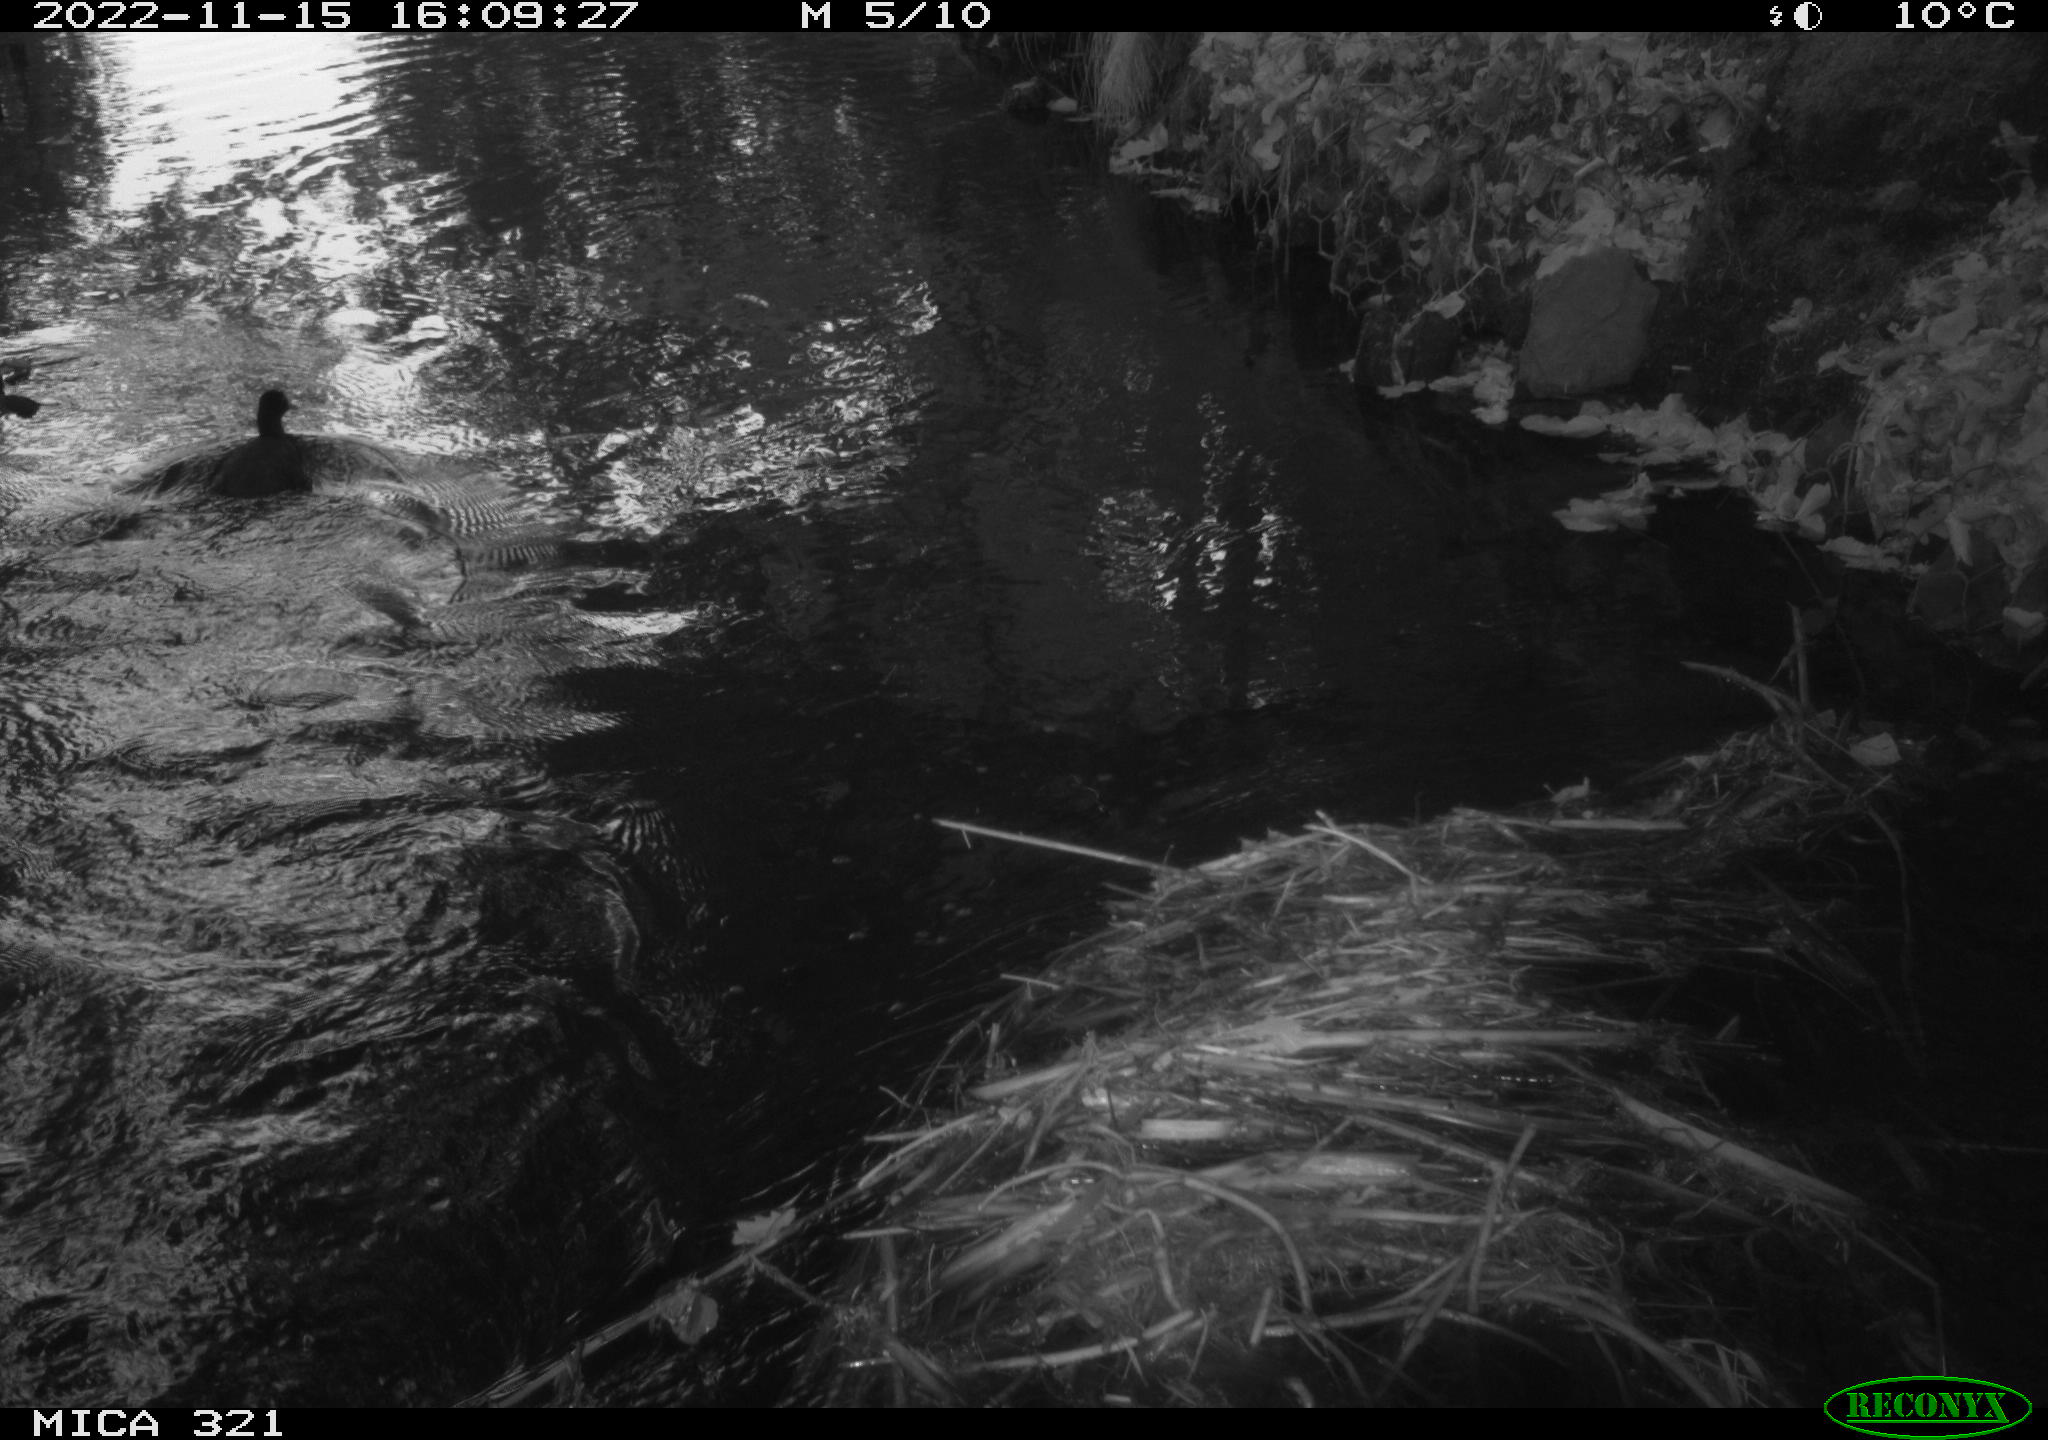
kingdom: Animalia
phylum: Chordata
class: Aves
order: Anseriformes
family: Anatidae
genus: Anas
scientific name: Anas
